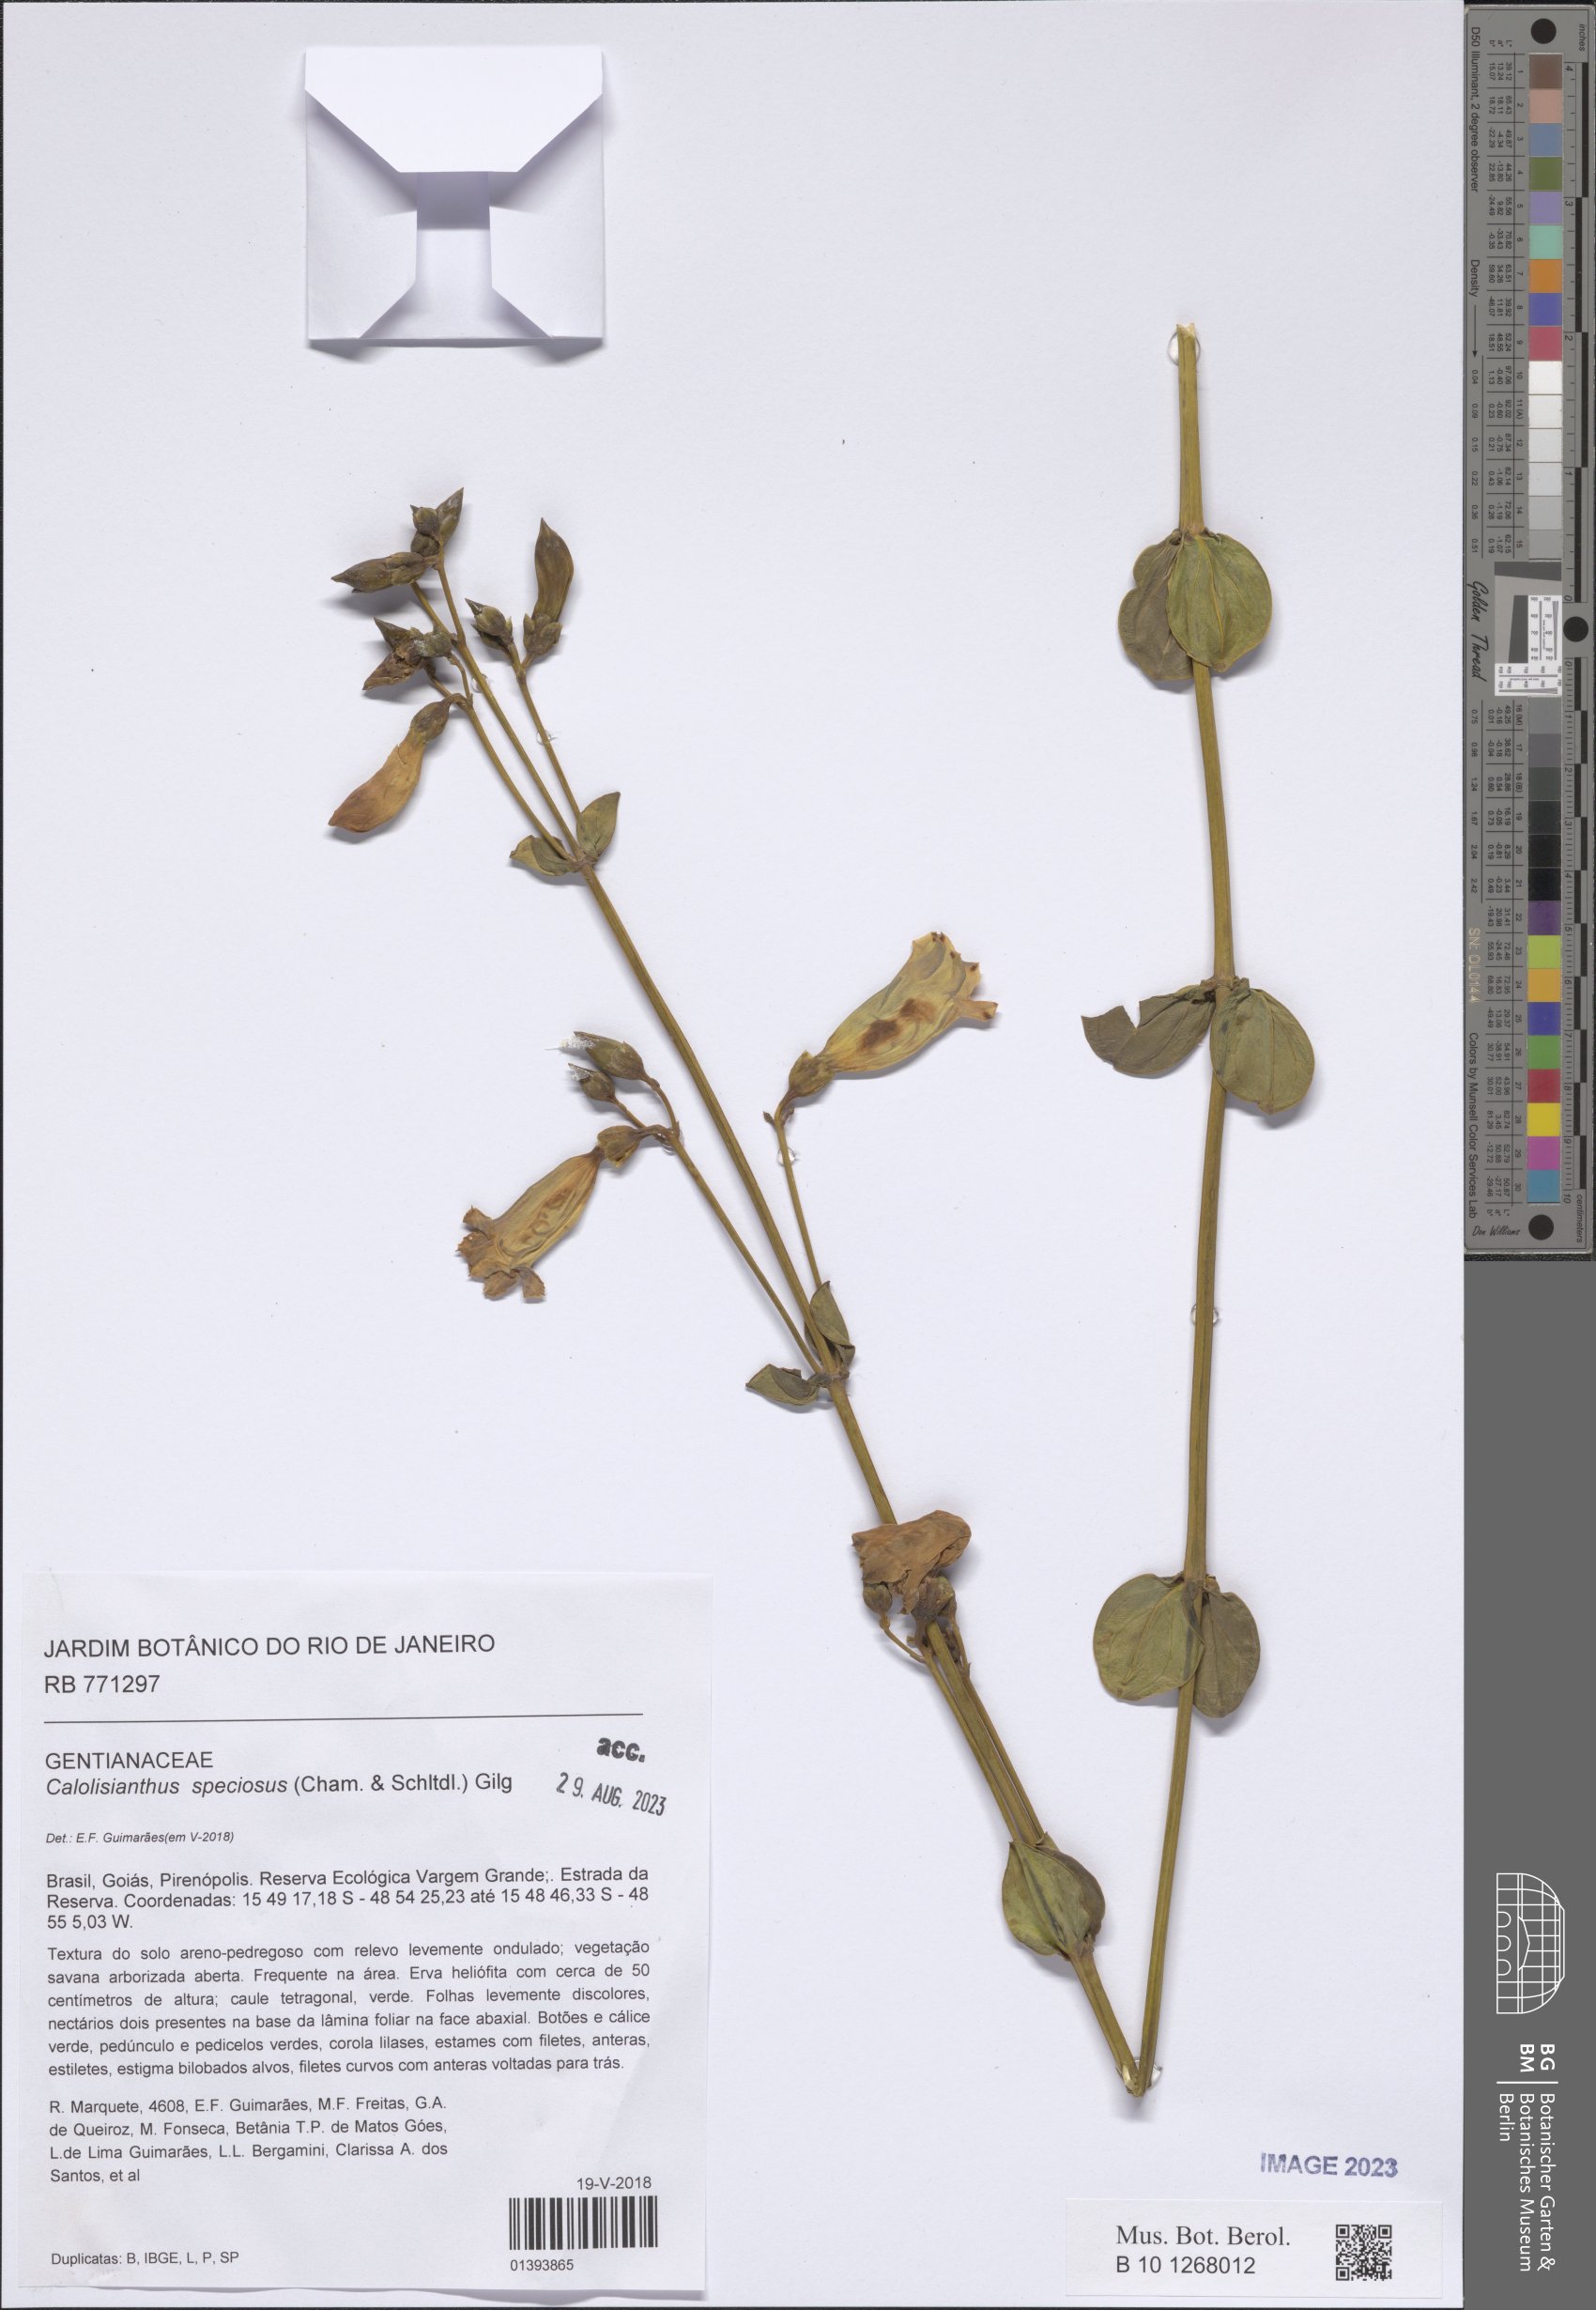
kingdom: Plantae
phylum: Tracheophyta
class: Magnoliopsida
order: Gentianales
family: Gentianaceae
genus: Calolisianthus
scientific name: Calolisianthus speciosus
